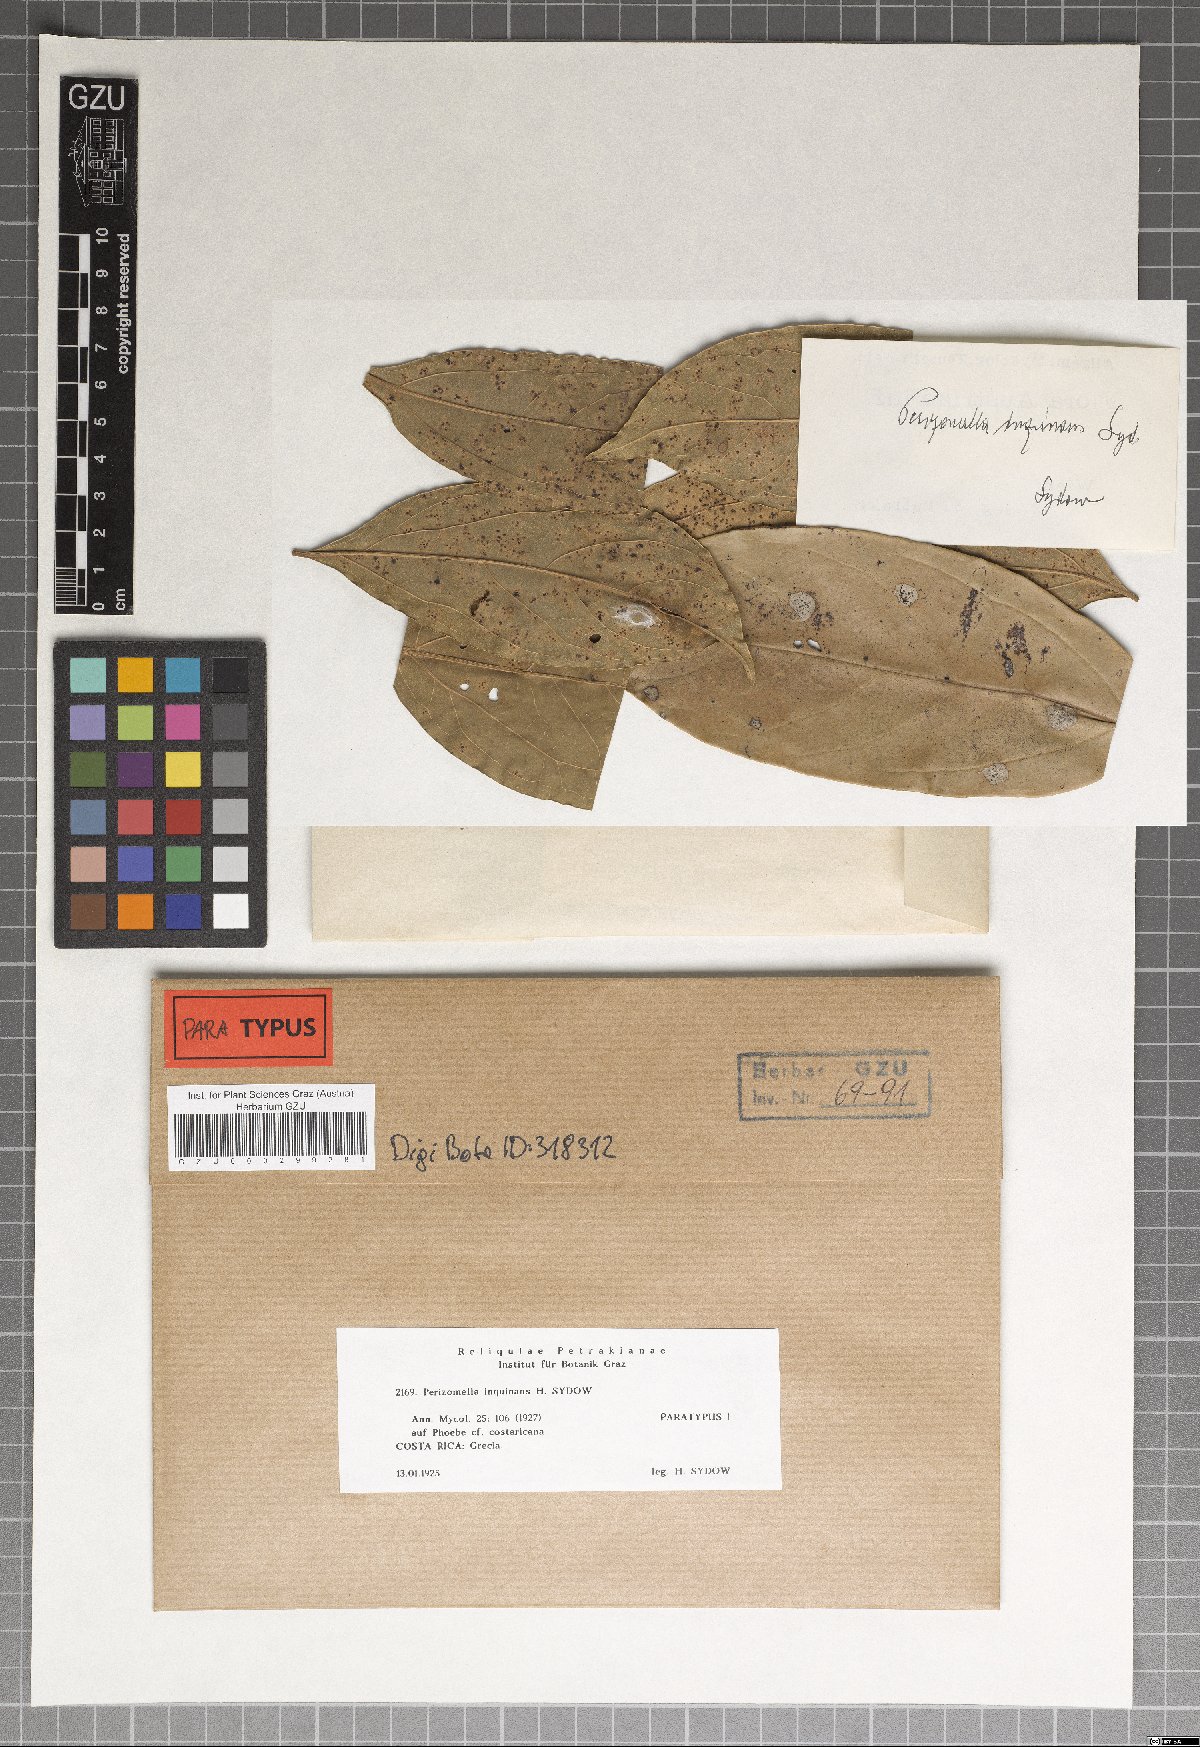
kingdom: Fungi
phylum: Ascomycota
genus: Perizomella
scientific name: Perizomella inquinans
